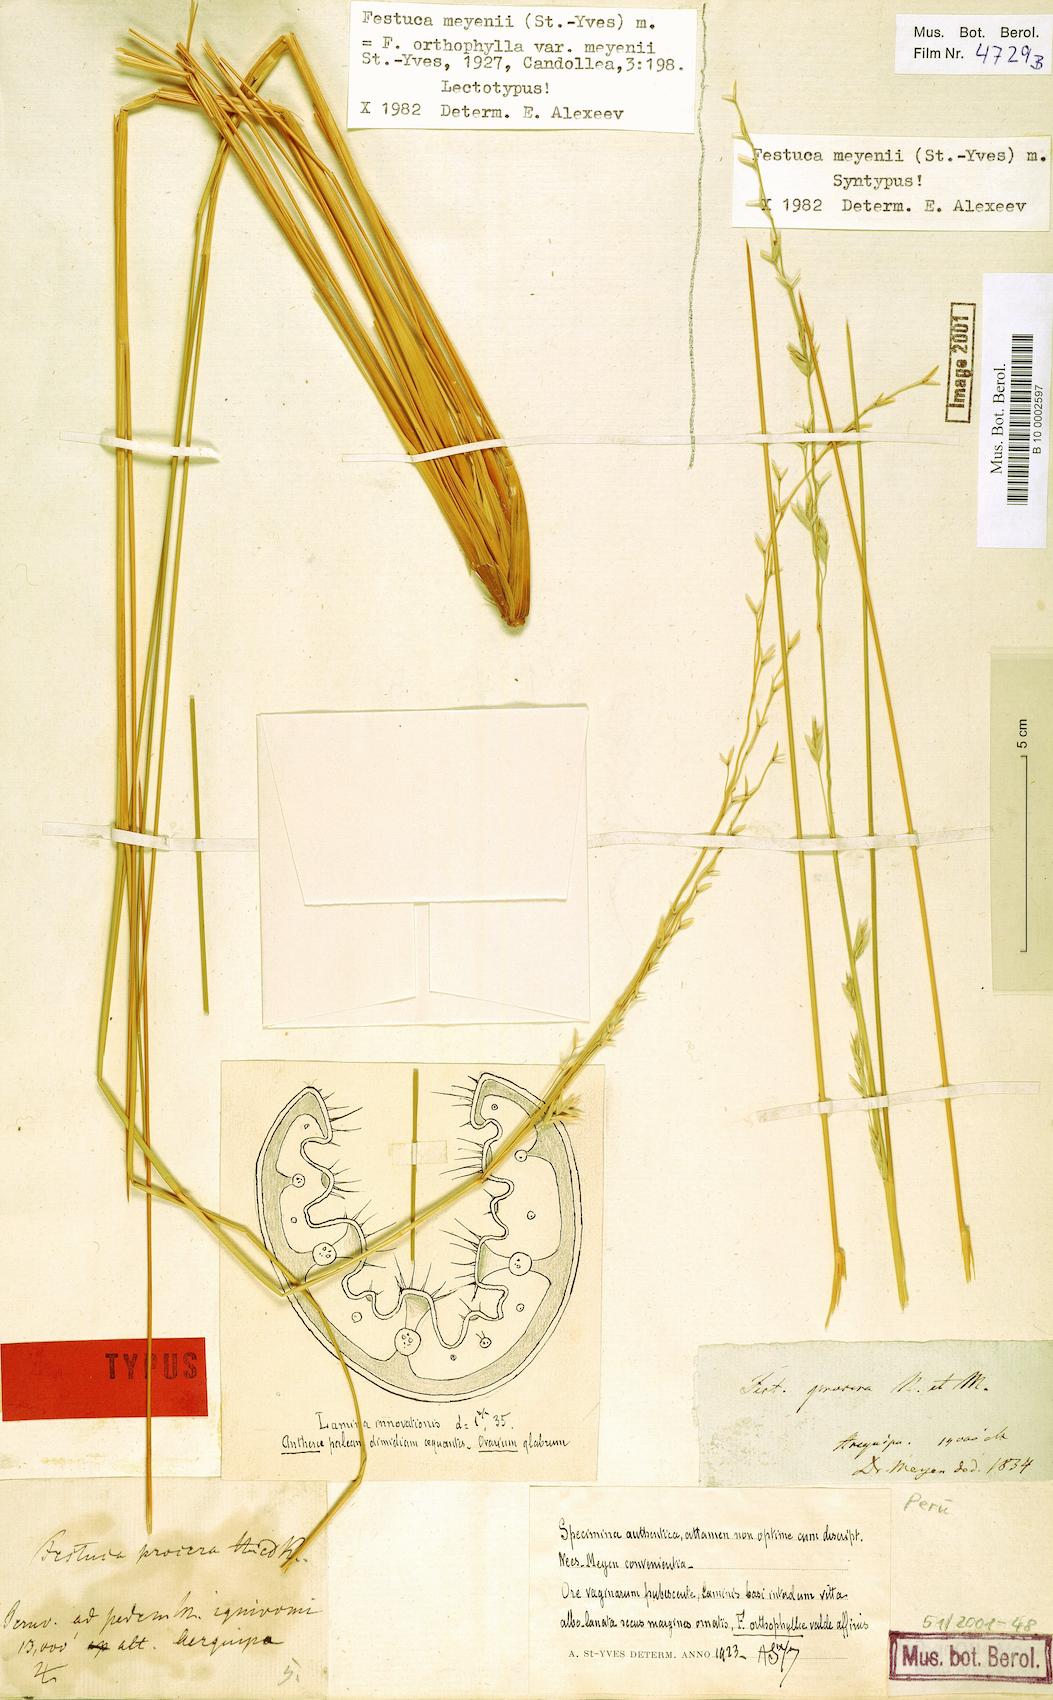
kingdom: Plantae
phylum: Tracheophyta
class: Liliopsida
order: Poales
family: Poaceae
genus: Festuca
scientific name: Festuca chrysophylla
